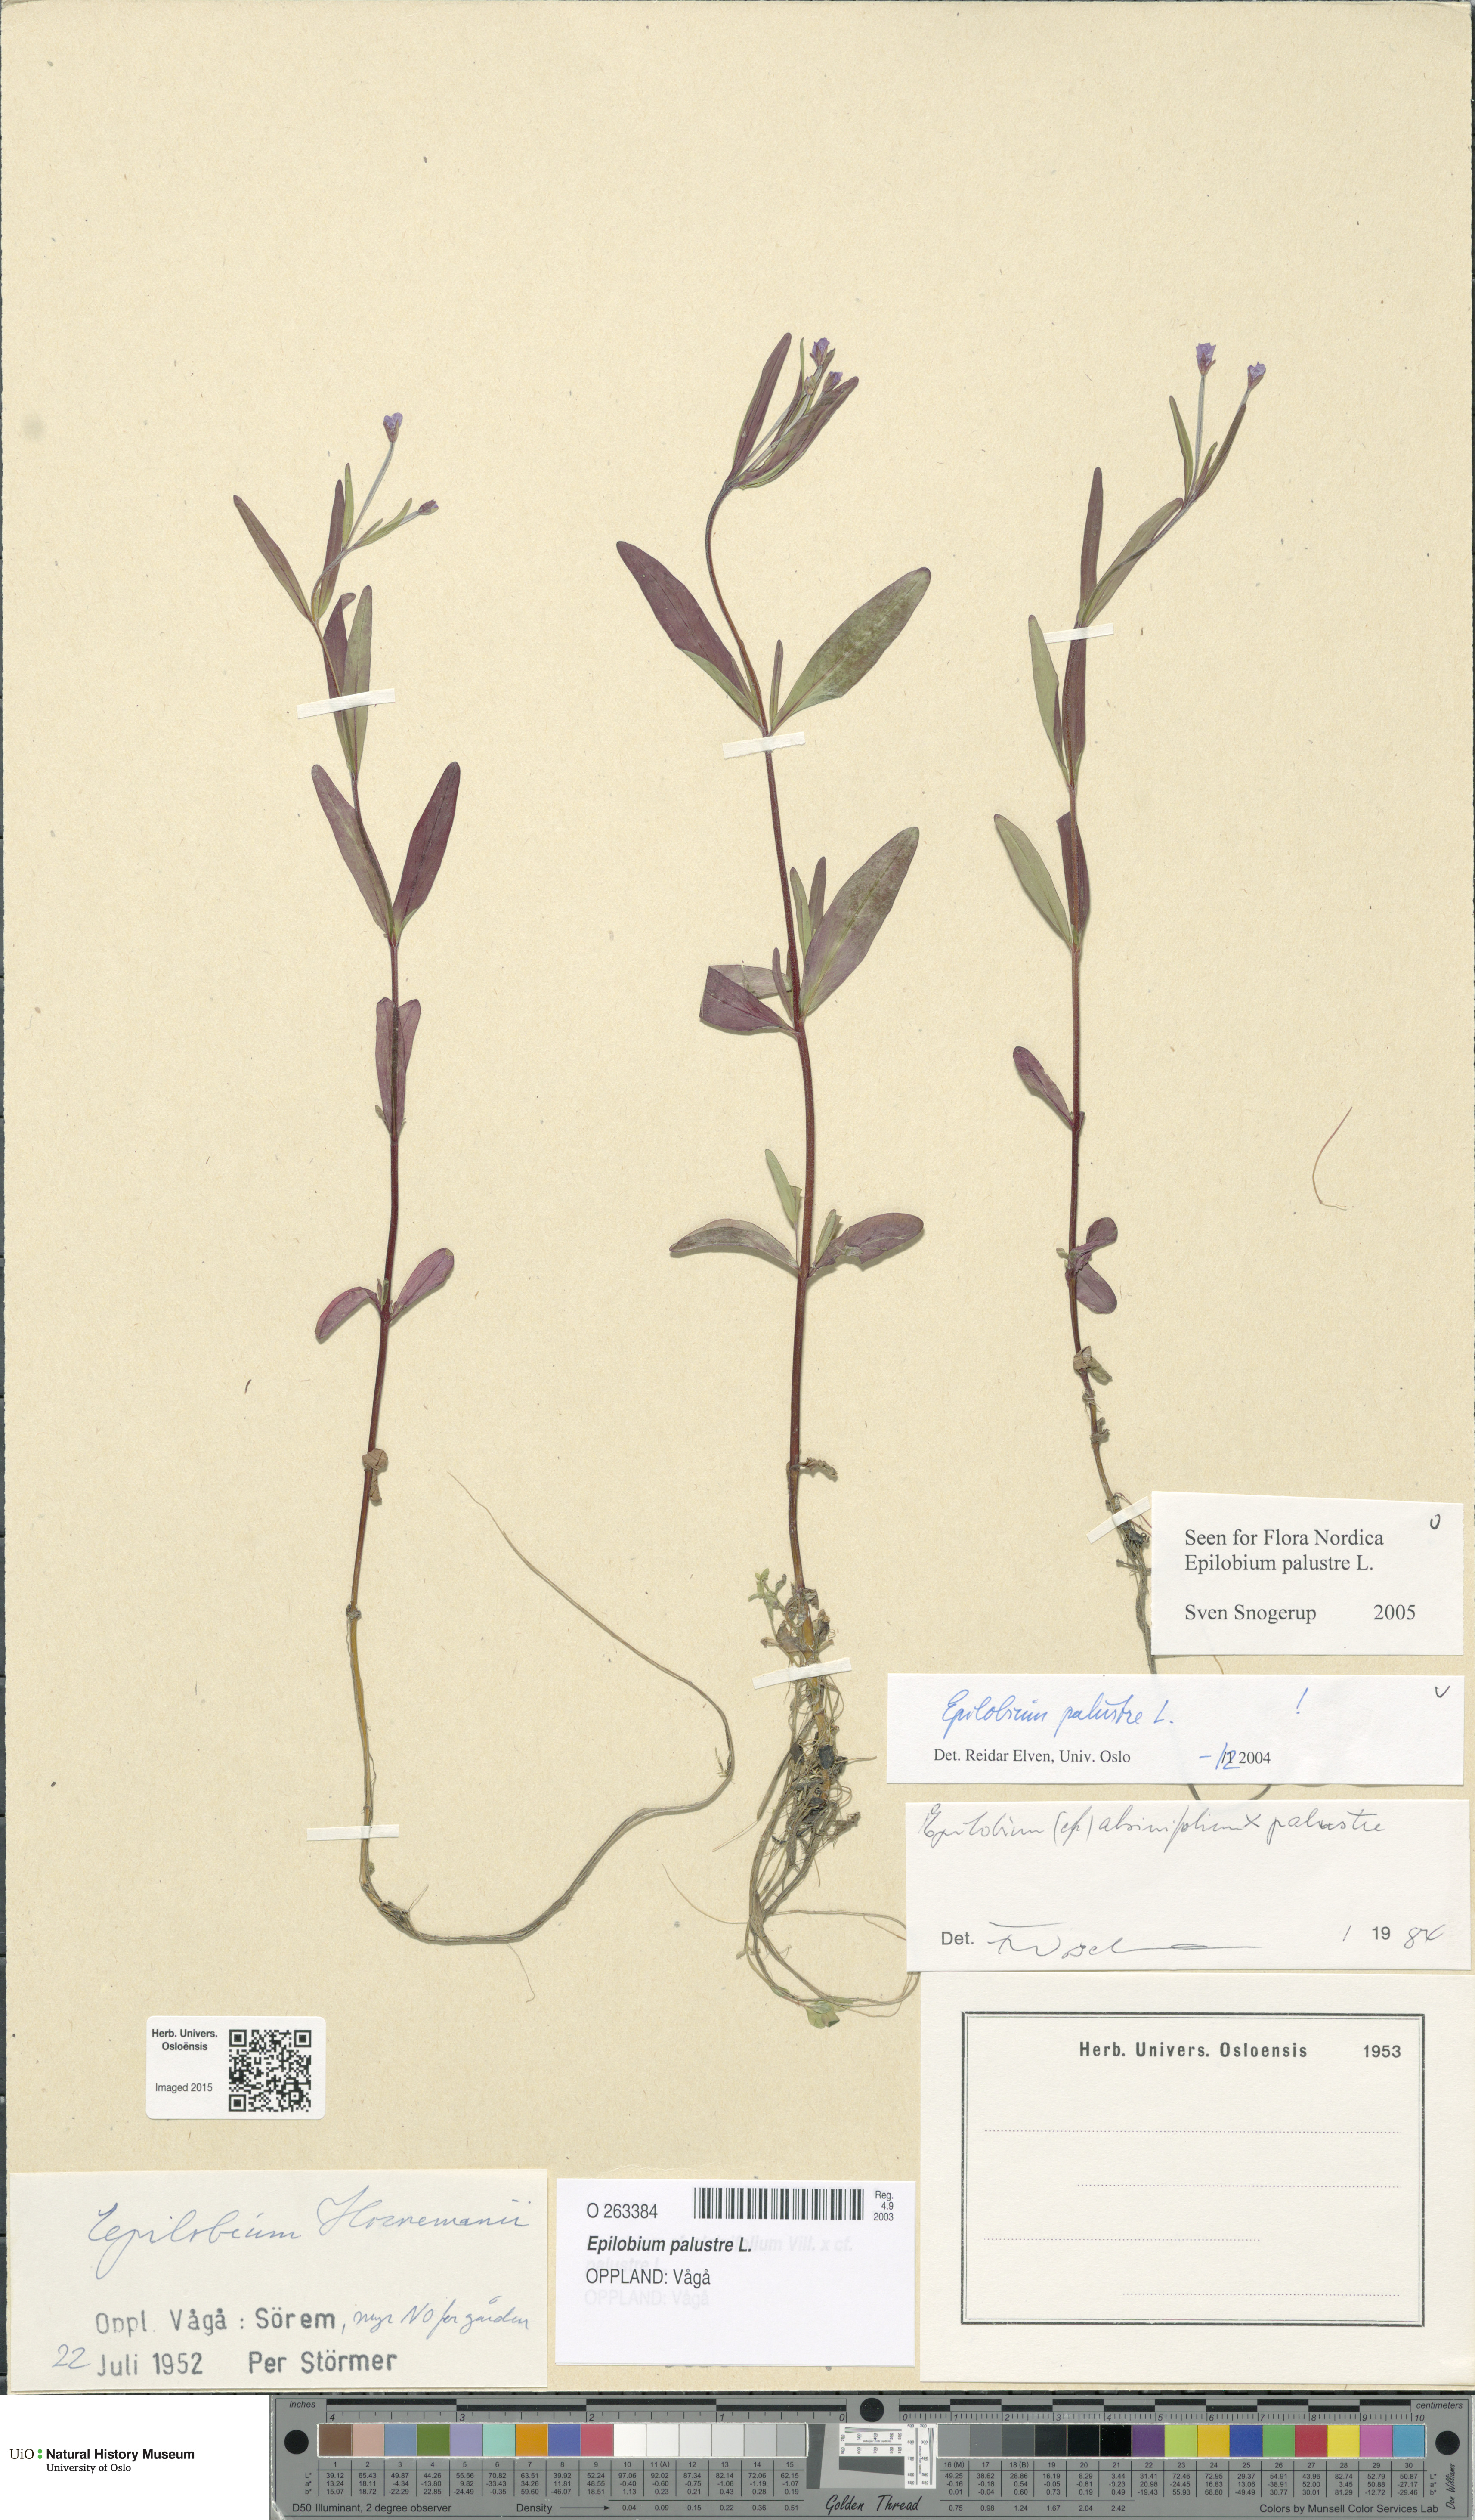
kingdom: Plantae
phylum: Tracheophyta
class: Magnoliopsida
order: Myrtales
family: Onagraceae
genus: Epilobium
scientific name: Epilobium palustre
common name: Marsh willowherb
